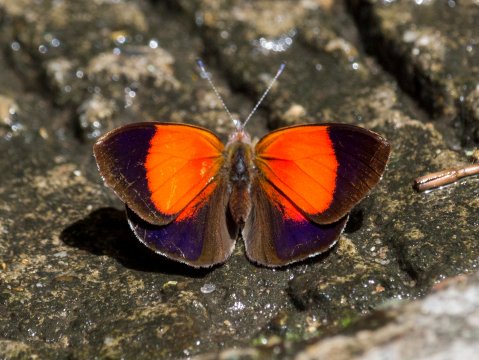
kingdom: Animalia
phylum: Arthropoda
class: Insecta
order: Lepidoptera
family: Nymphalidae
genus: Haematera
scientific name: Haematera pyrame
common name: Blind Eighty-eight
